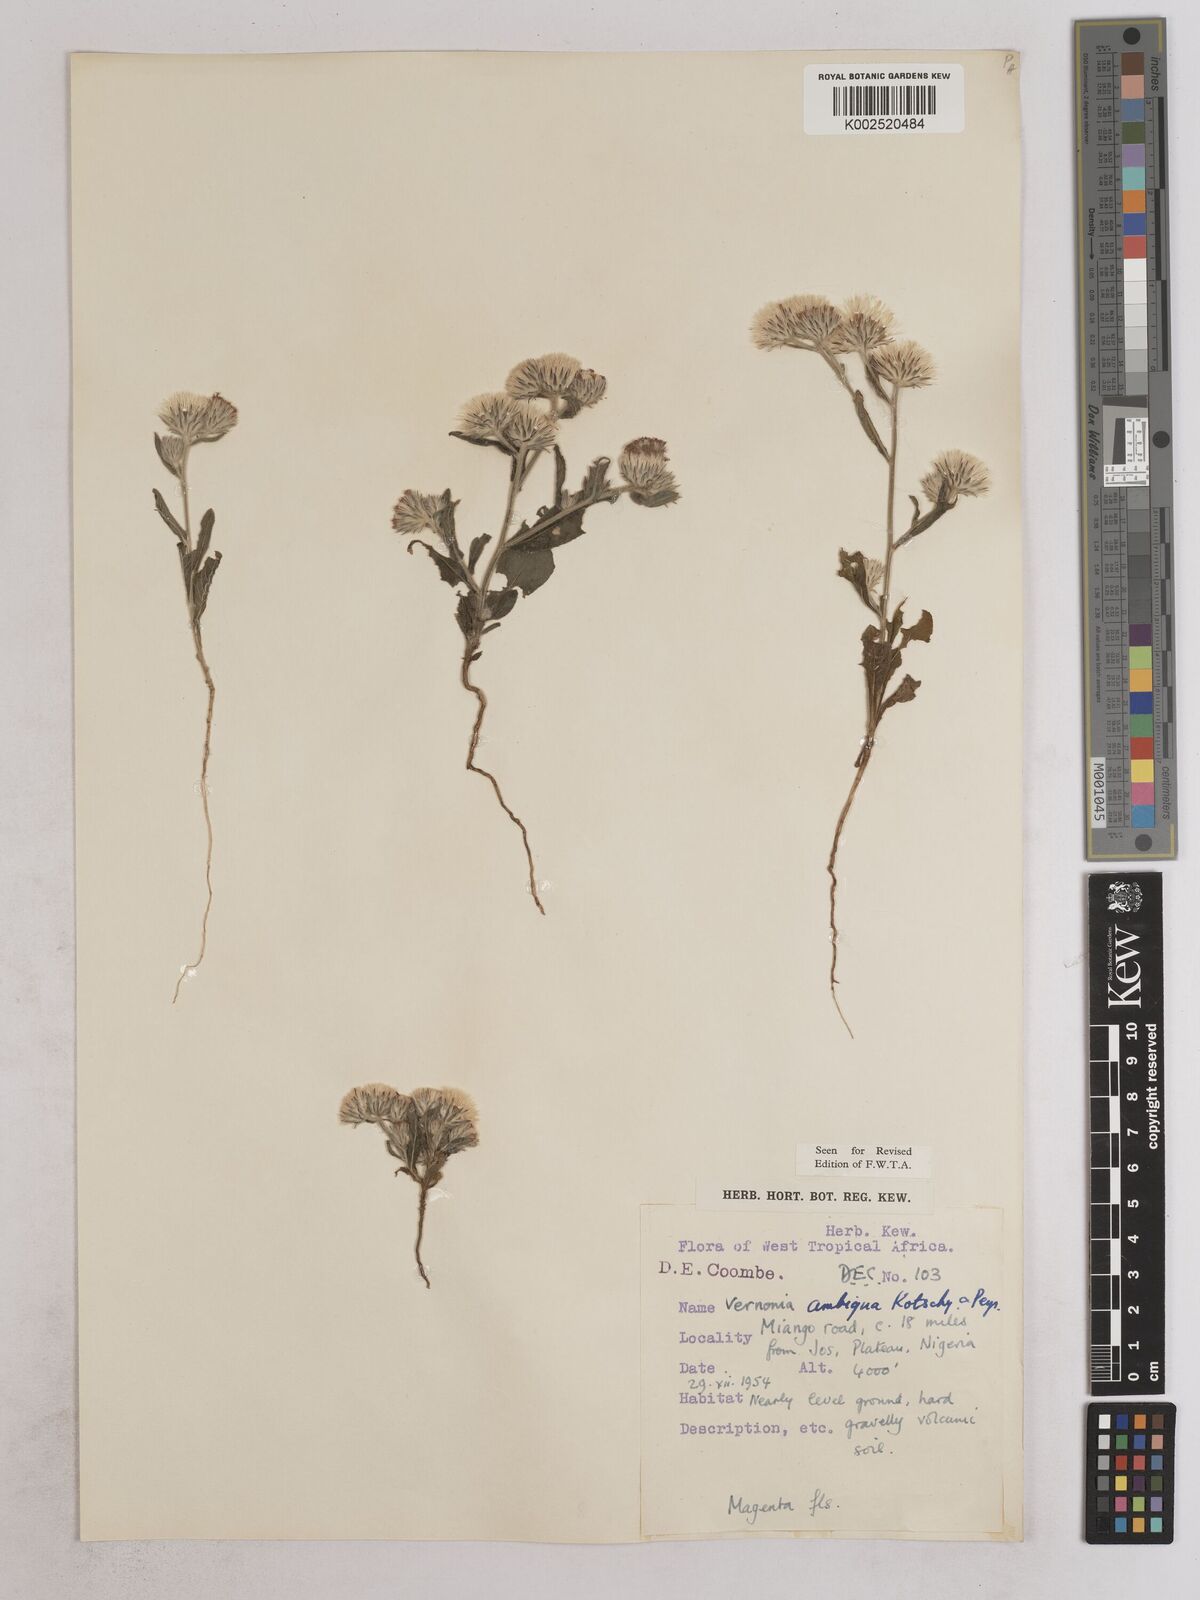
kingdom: Plantae
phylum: Tracheophyta
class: Magnoliopsida
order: Asterales
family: Asteraceae
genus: Vernoniastrum
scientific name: Vernoniastrum ambiguum
